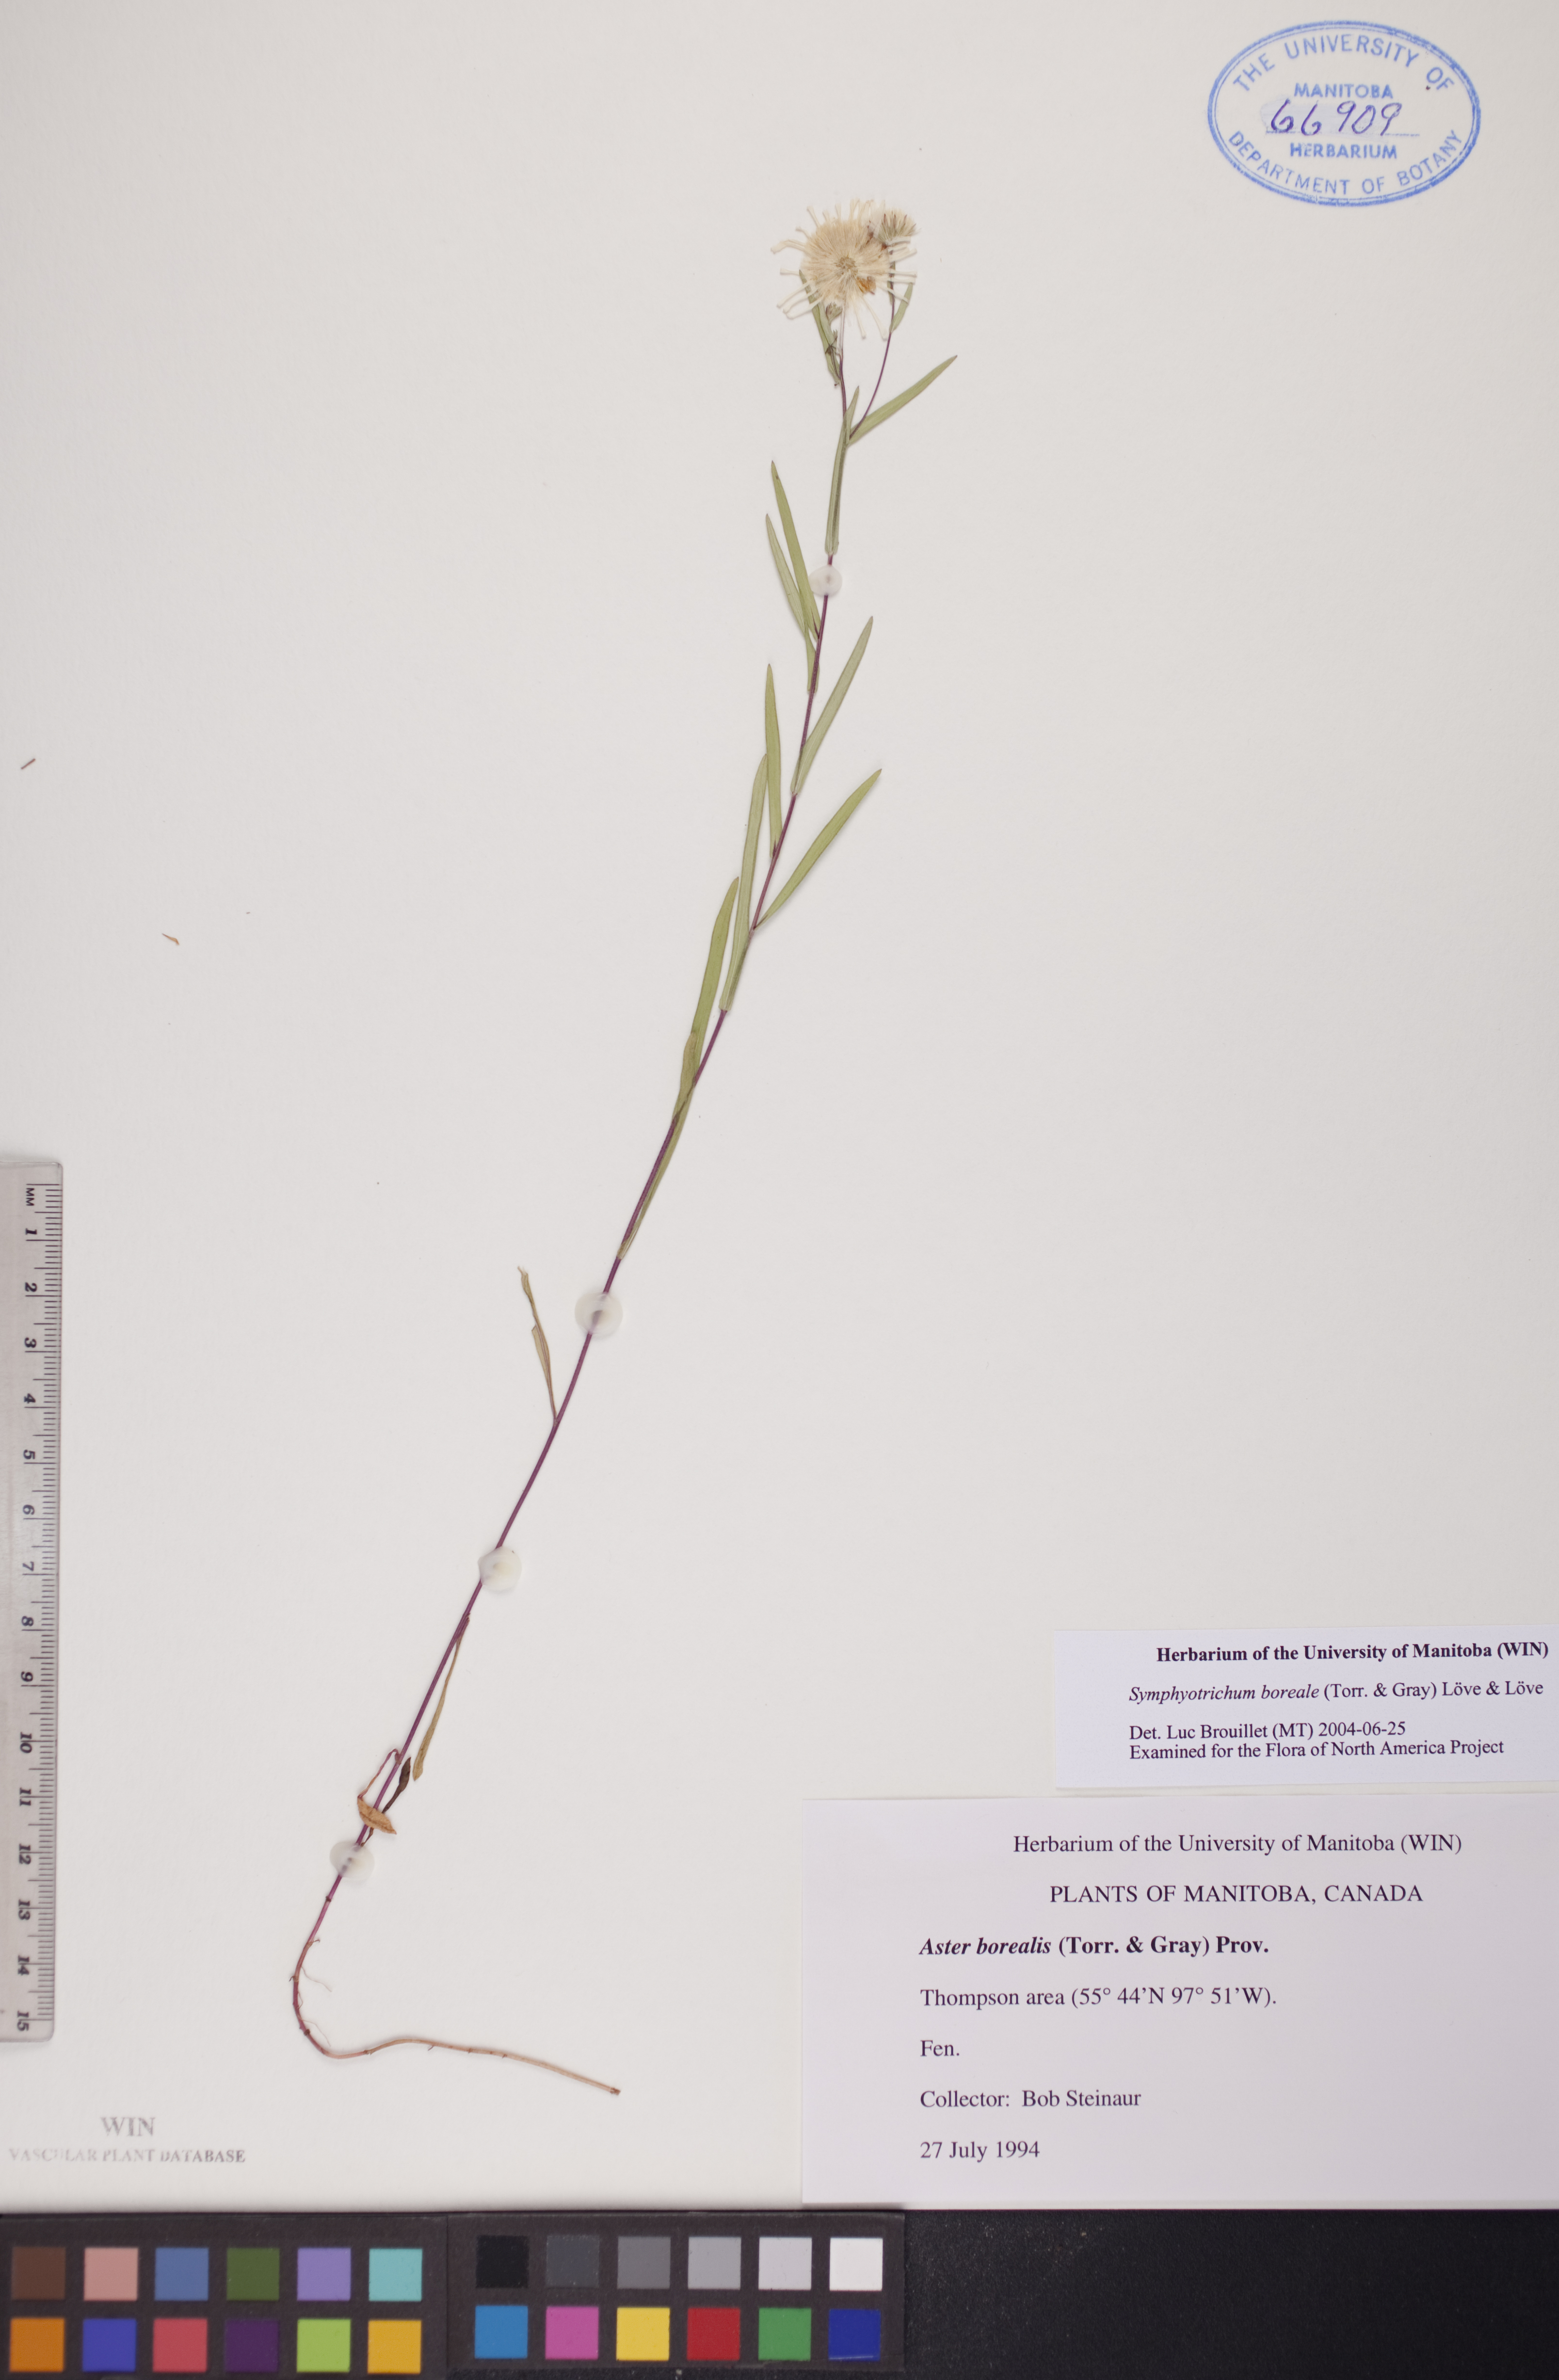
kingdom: Plantae
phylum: Tracheophyta
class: Magnoliopsida
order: Asterales
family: Asteraceae
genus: Symphyotrichum
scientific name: Symphyotrichum boreale
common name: Northern bog aster
